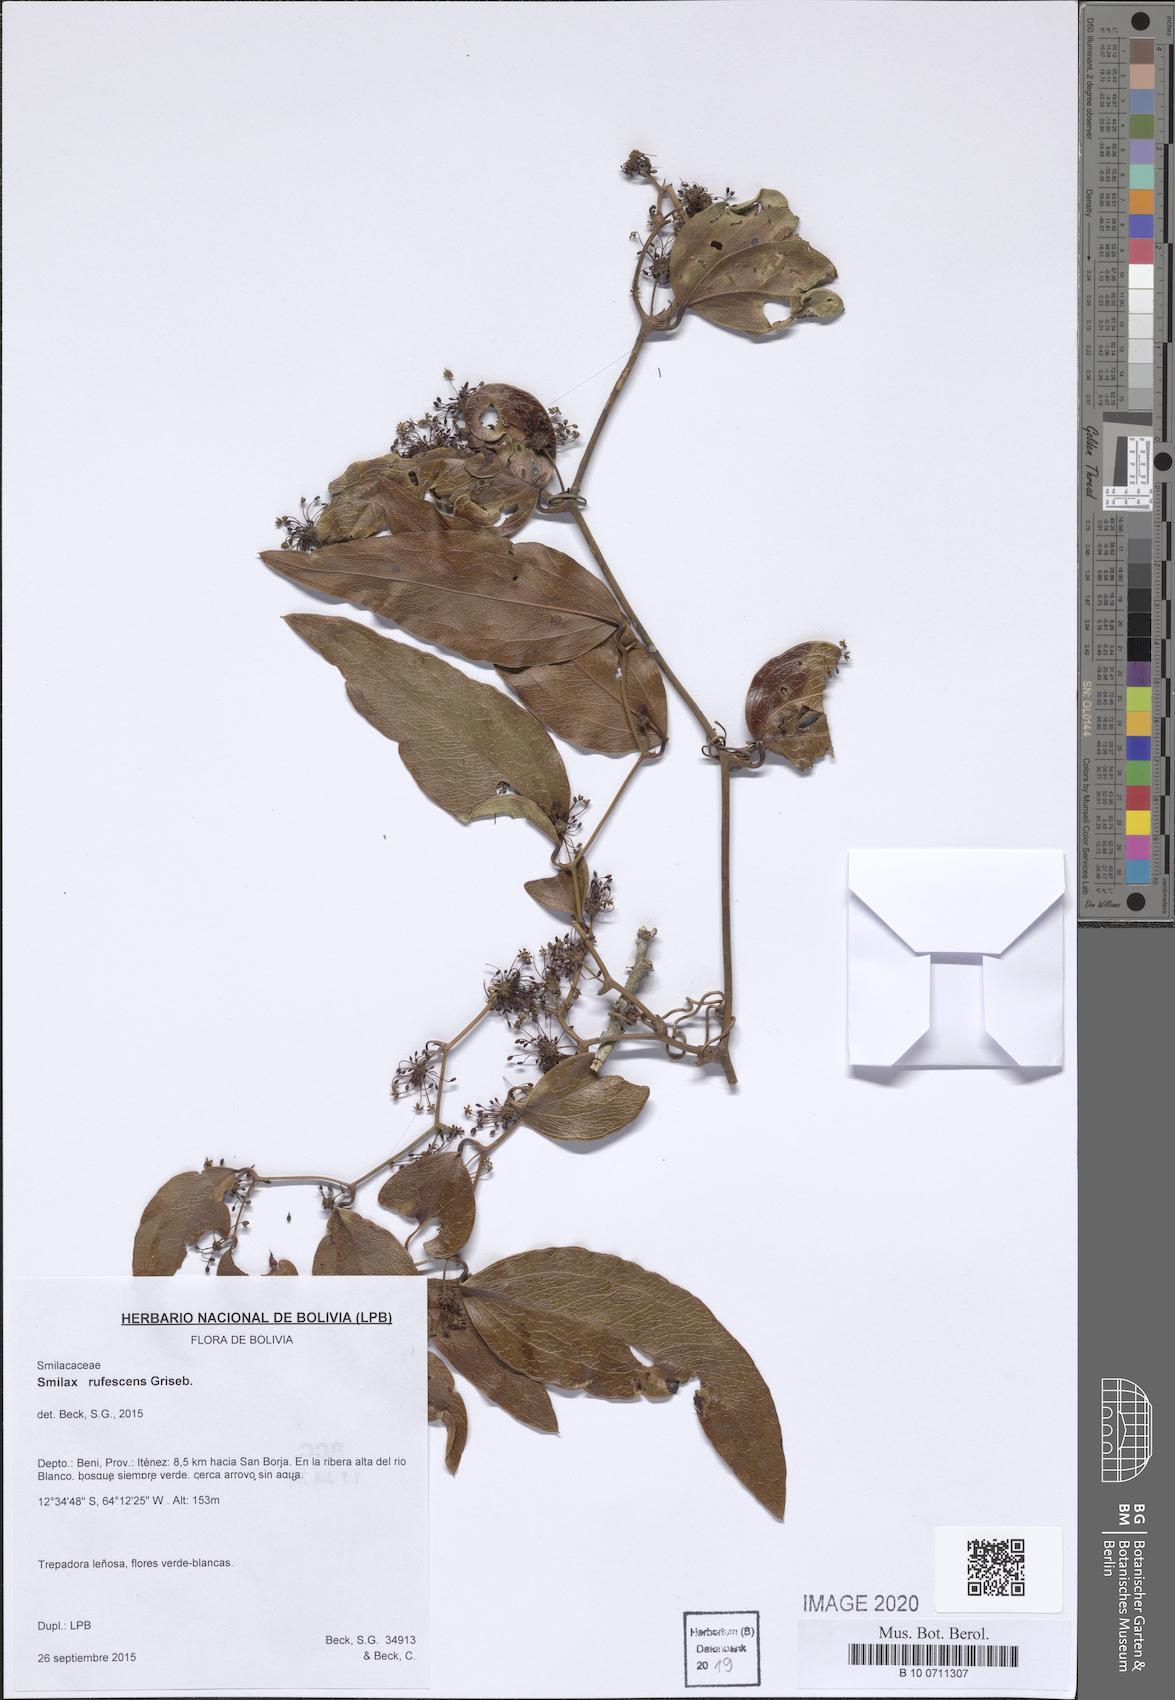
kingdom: Plantae
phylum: Tracheophyta
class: Liliopsida
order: Liliales
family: Smilacaceae
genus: Smilax
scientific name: Smilax rufescens
